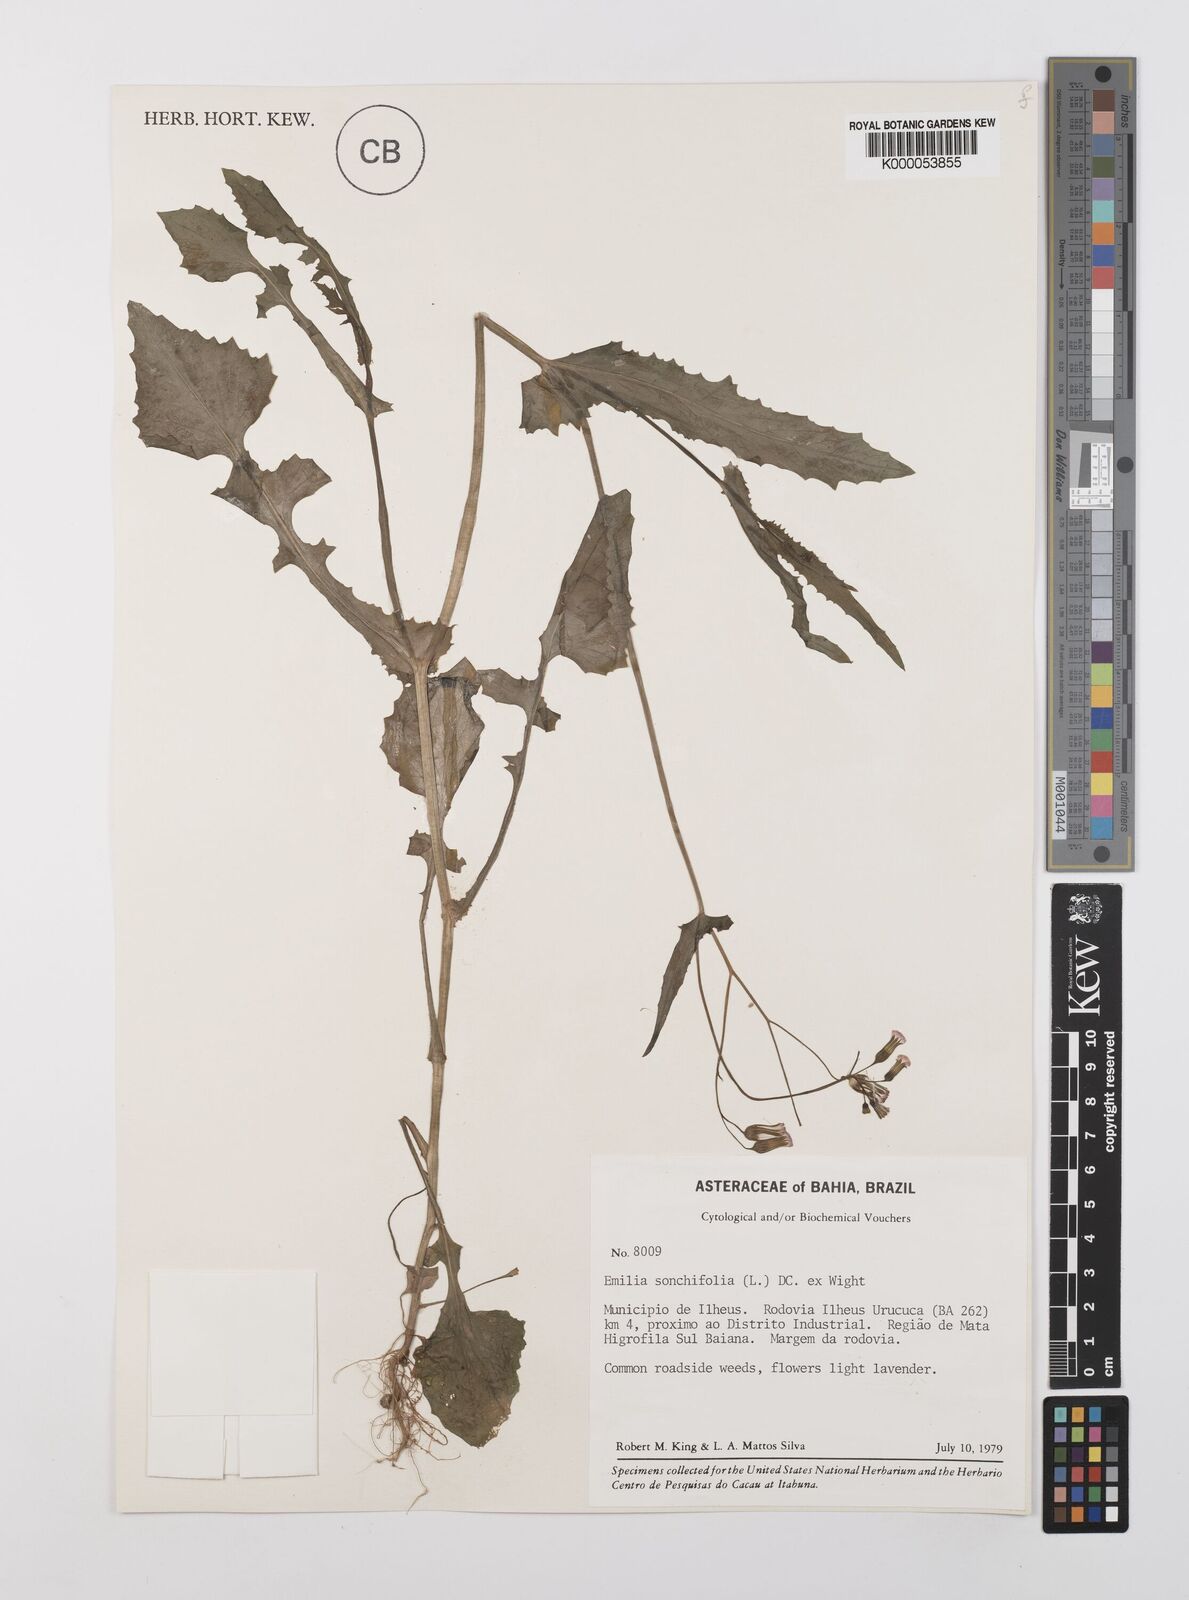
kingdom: Plantae
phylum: Tracheophyta
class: Magnoliopsida
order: Asterales
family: Asteraceae
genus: Emilia
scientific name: Emilia
